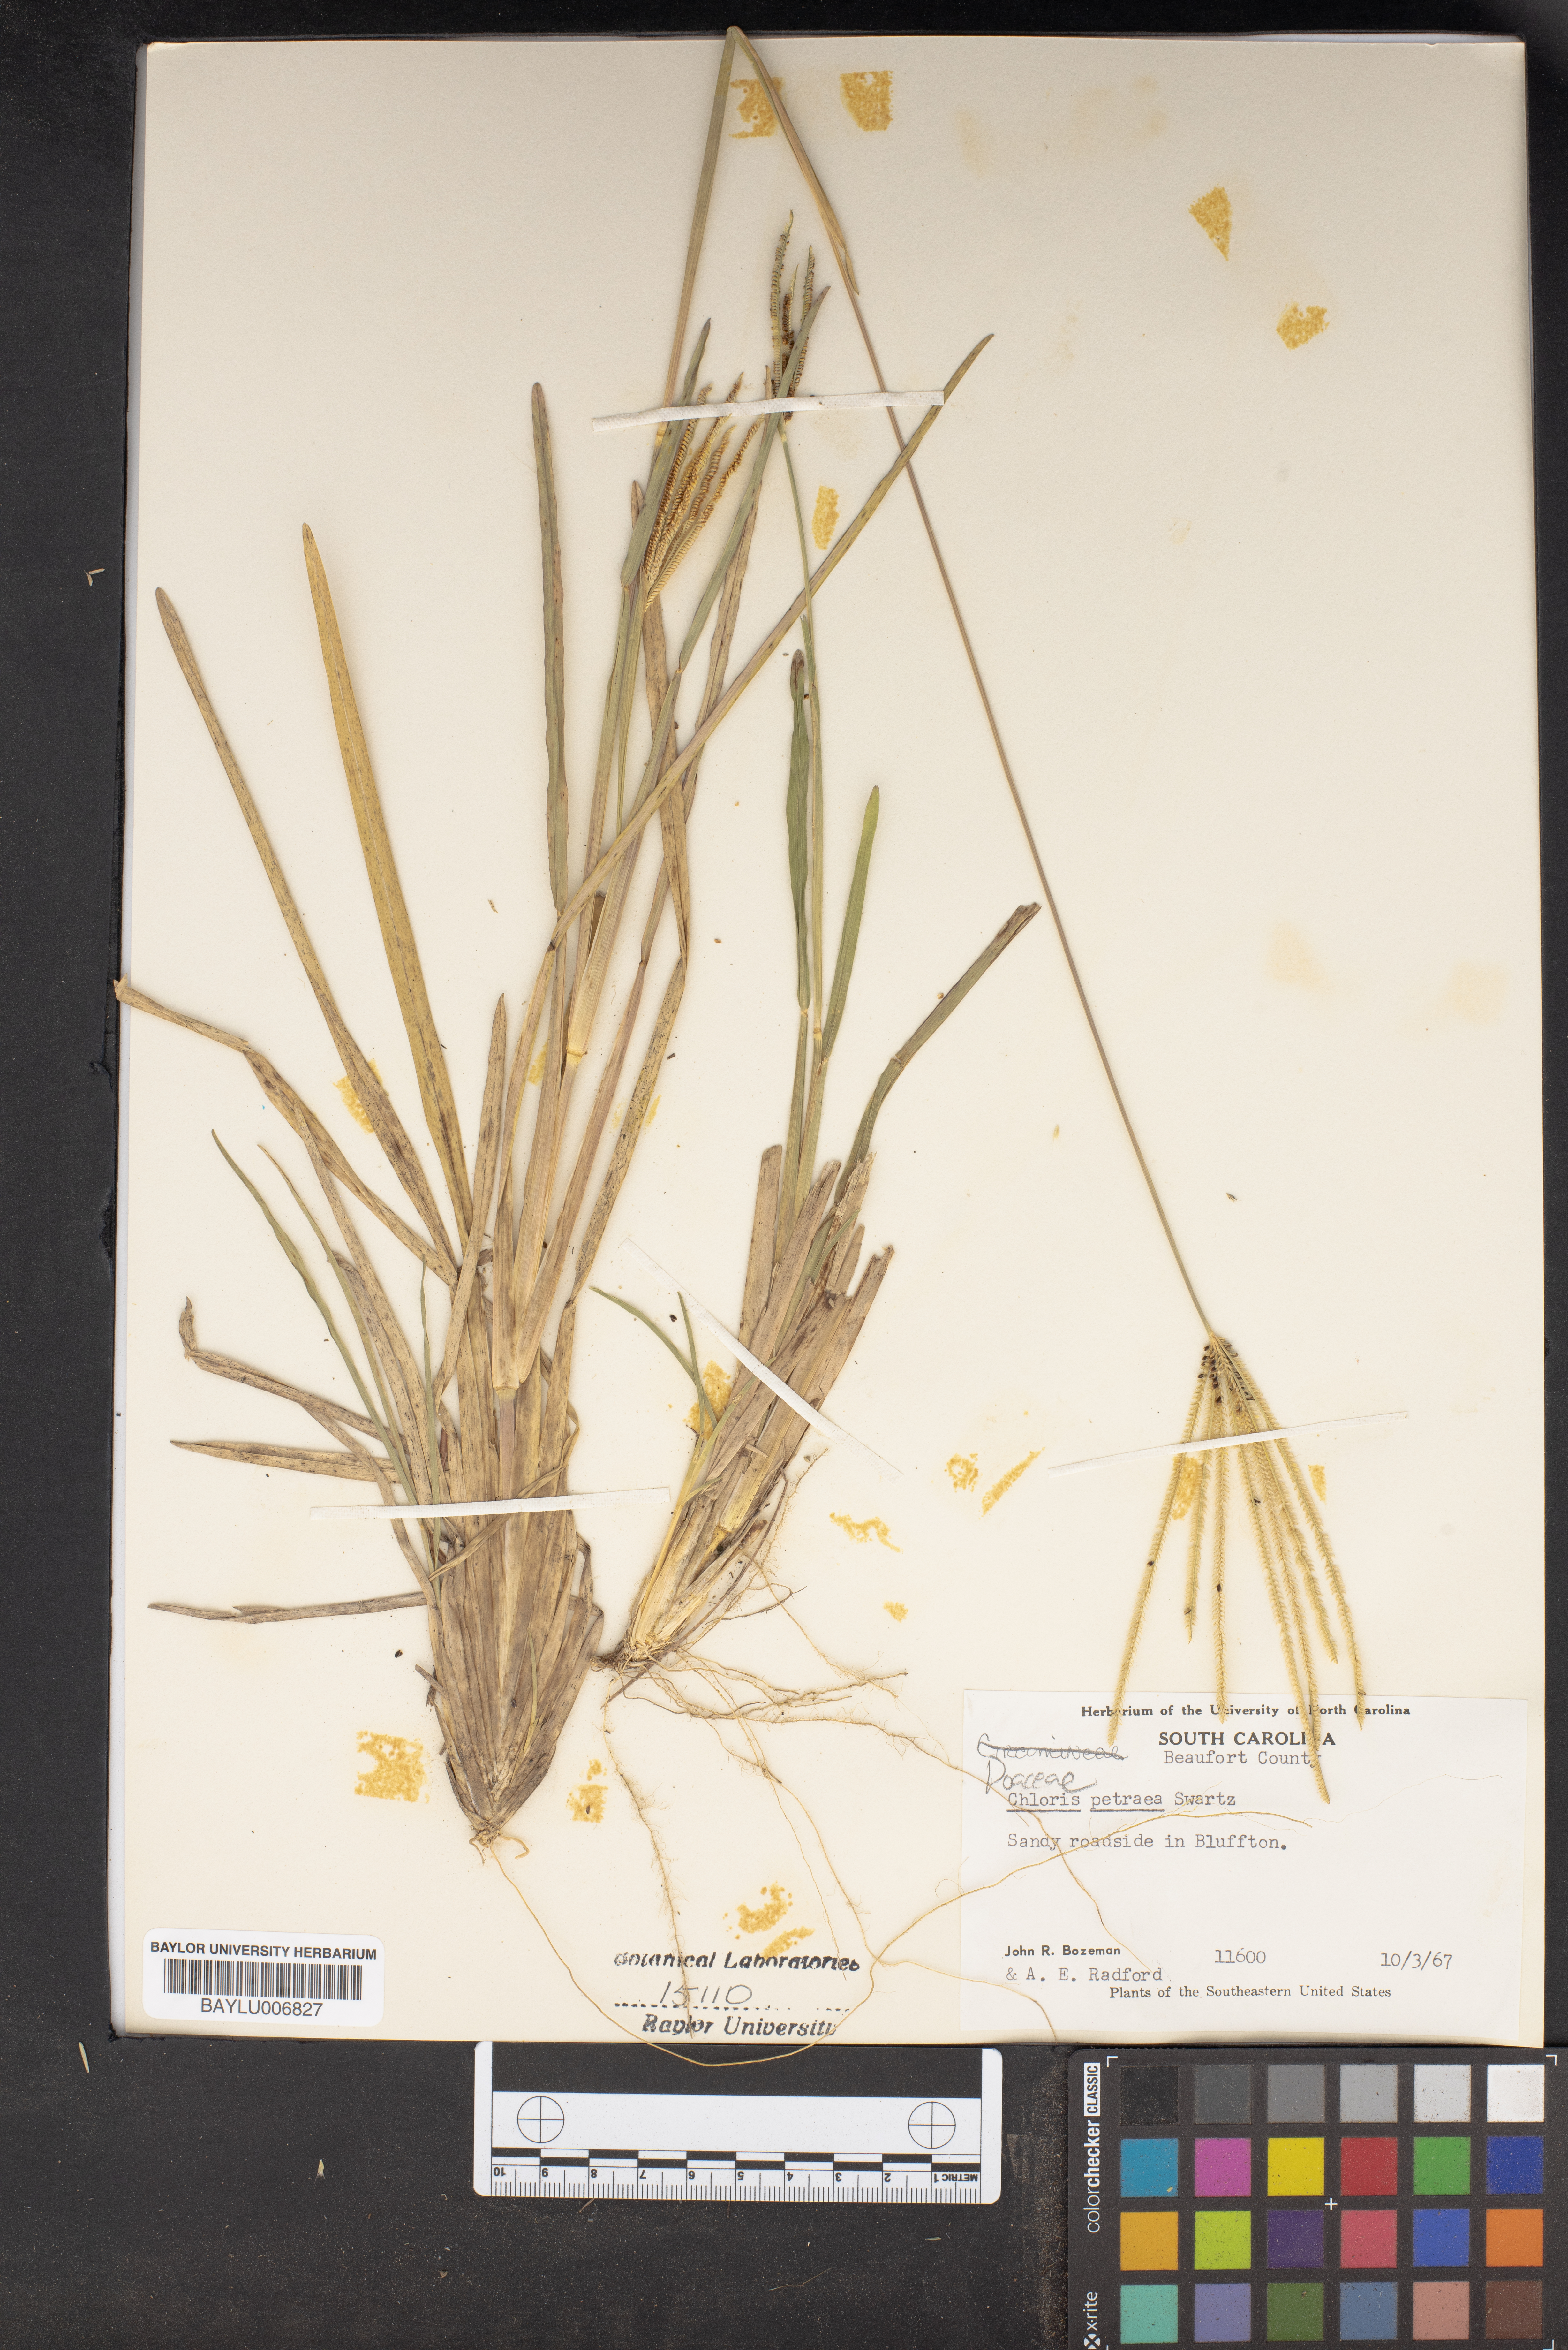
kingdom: Plantae
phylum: Tracheophyta
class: Liliopsida
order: Poales
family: Poaceae
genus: Eustachys
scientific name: Eustachys petraea
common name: Pinewoods fingergrass
